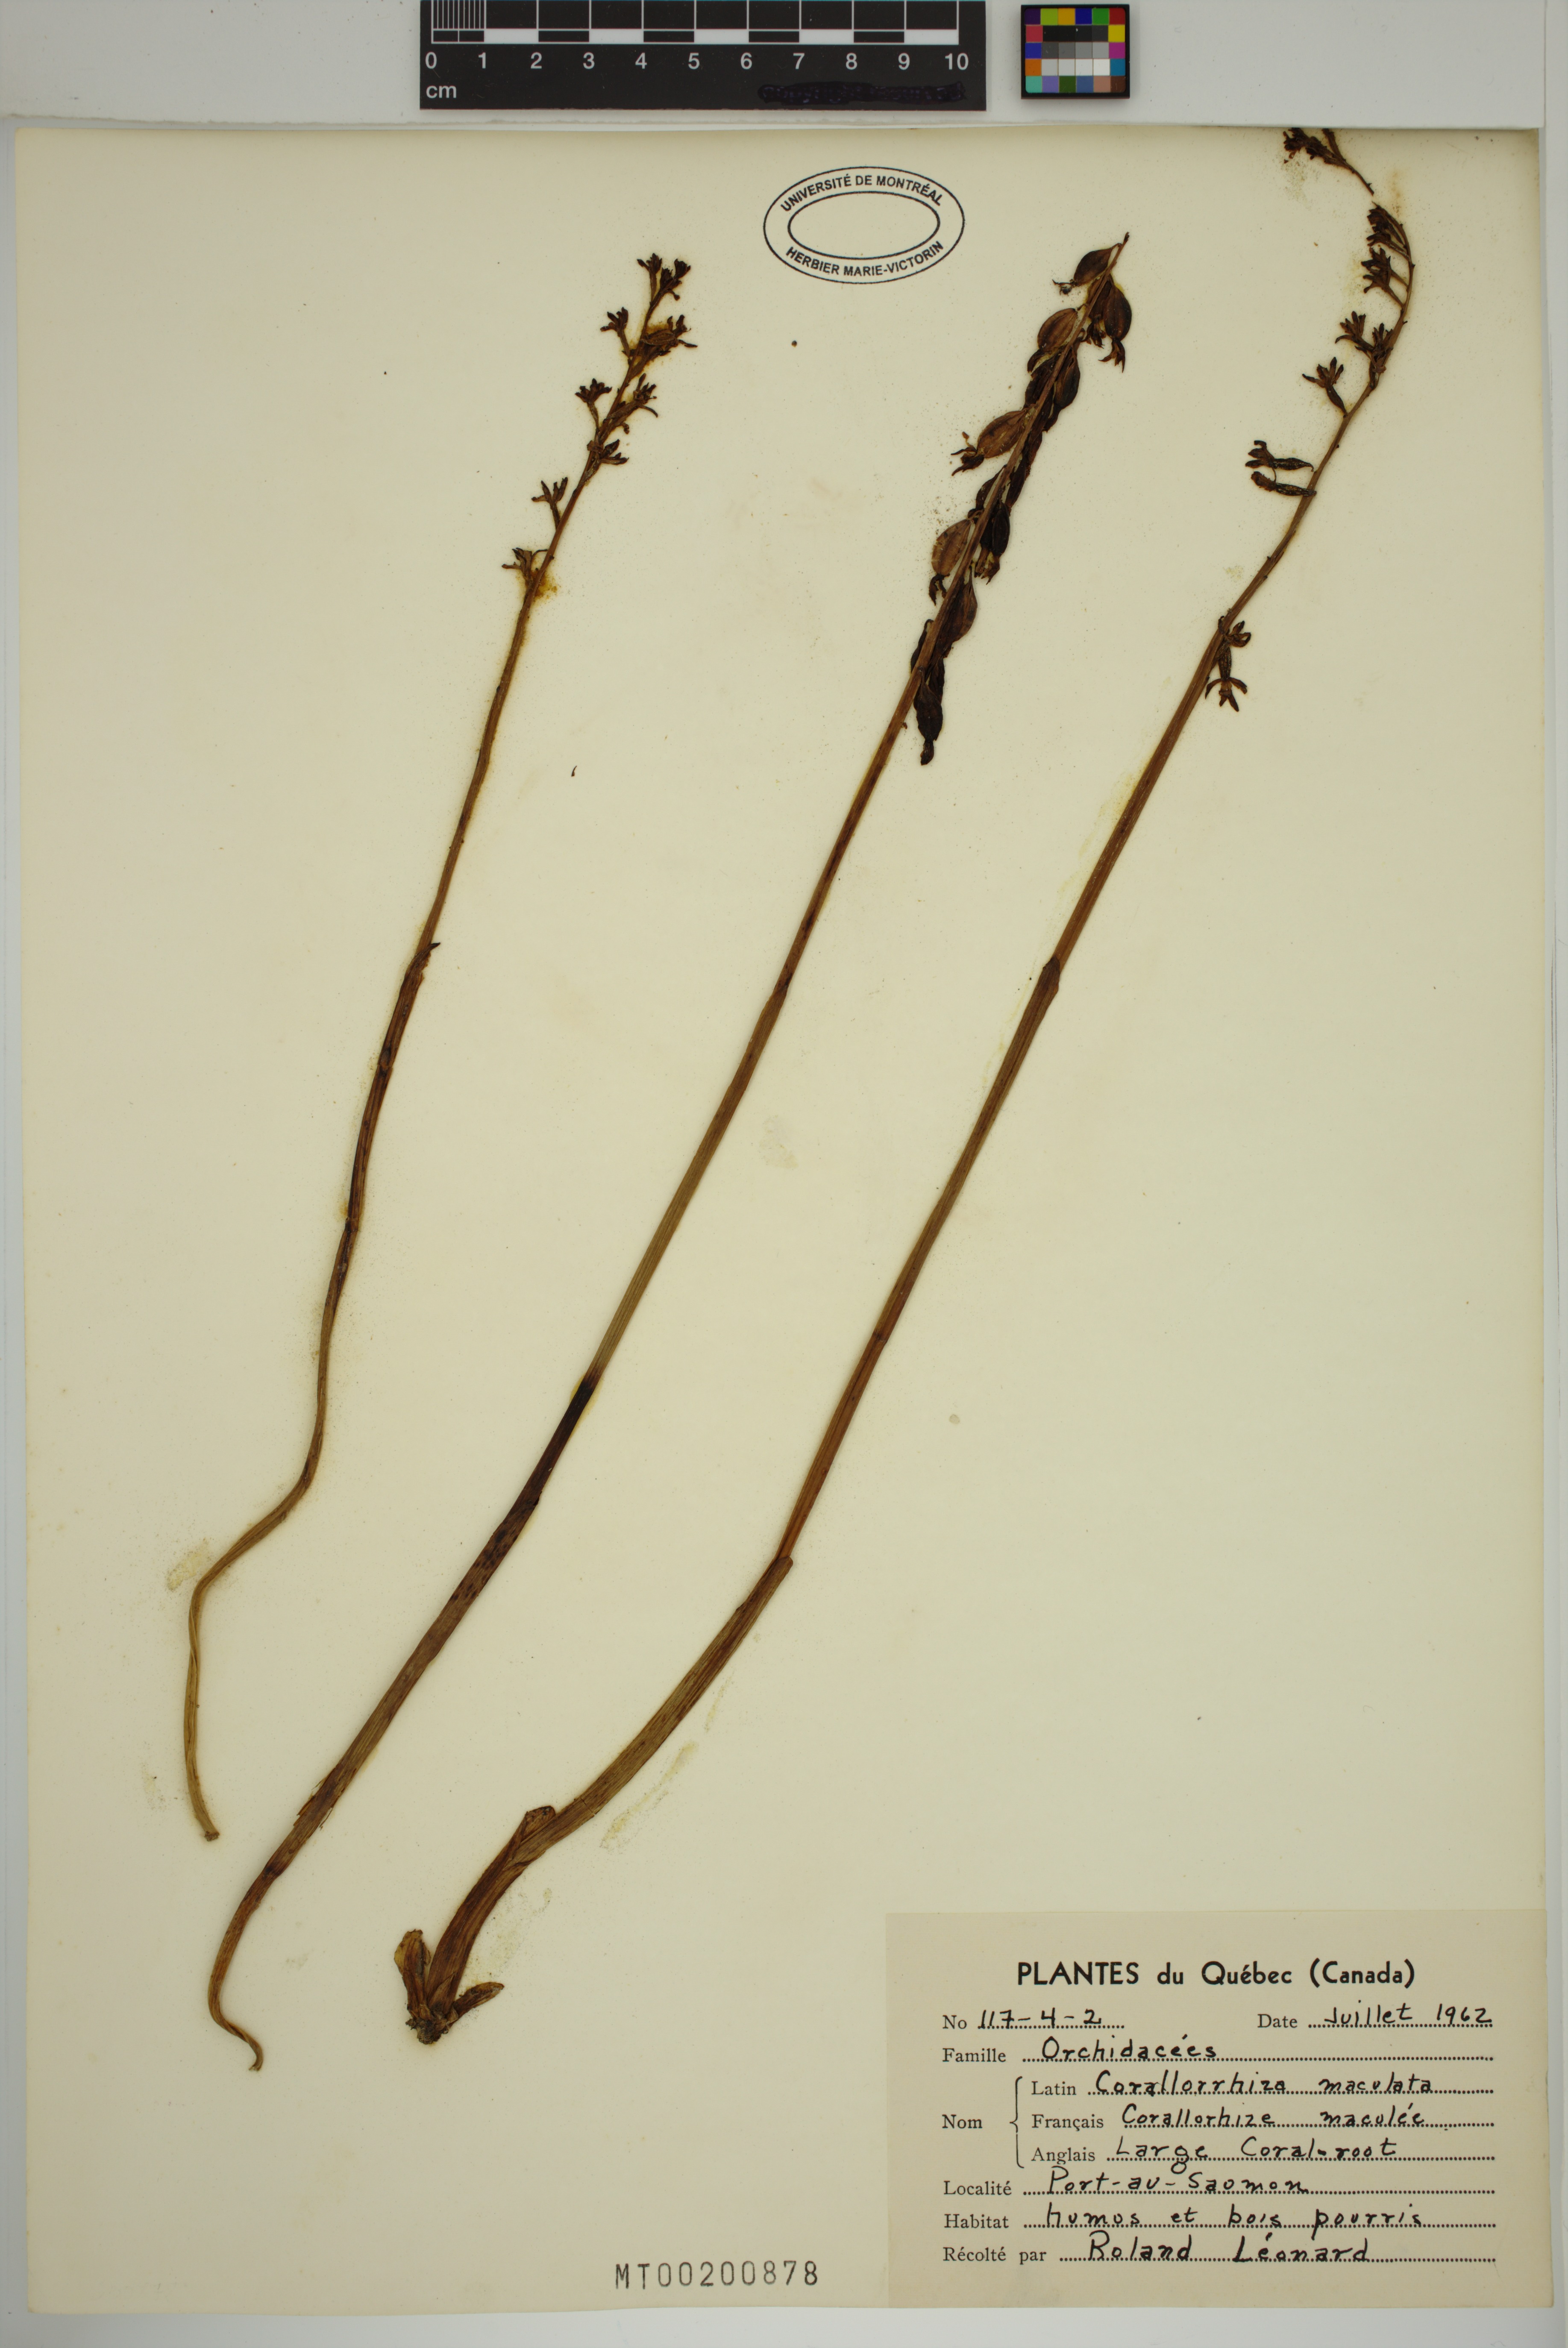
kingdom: Plantae
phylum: Tracheophyta
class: Liliopsida
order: Asparagales
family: Orchidaceae
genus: Corallorhiza
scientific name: Corallorhiza maculata
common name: Spotted coralroot
